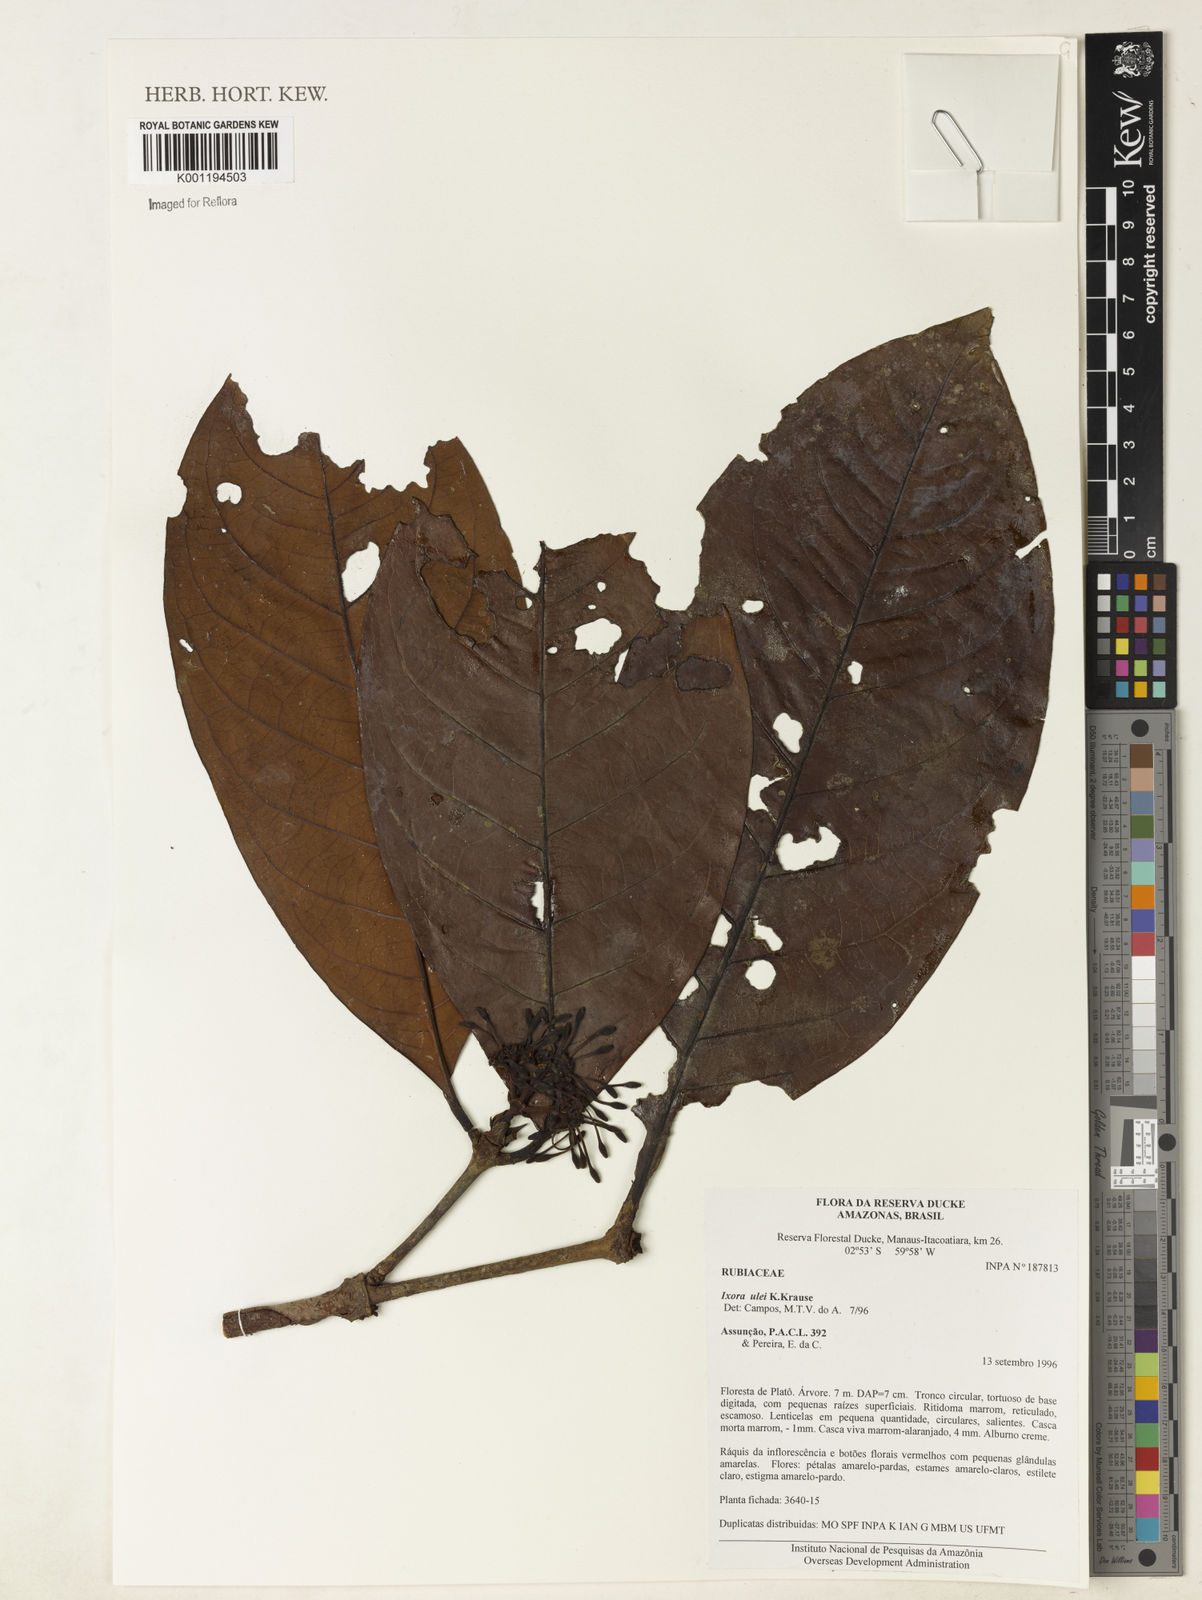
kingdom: Plantae
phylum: Tracheophyta
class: Magnoliopsida
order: Gentianales
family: Rubiaceae
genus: Ixora
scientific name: Ixora sparsifolia
